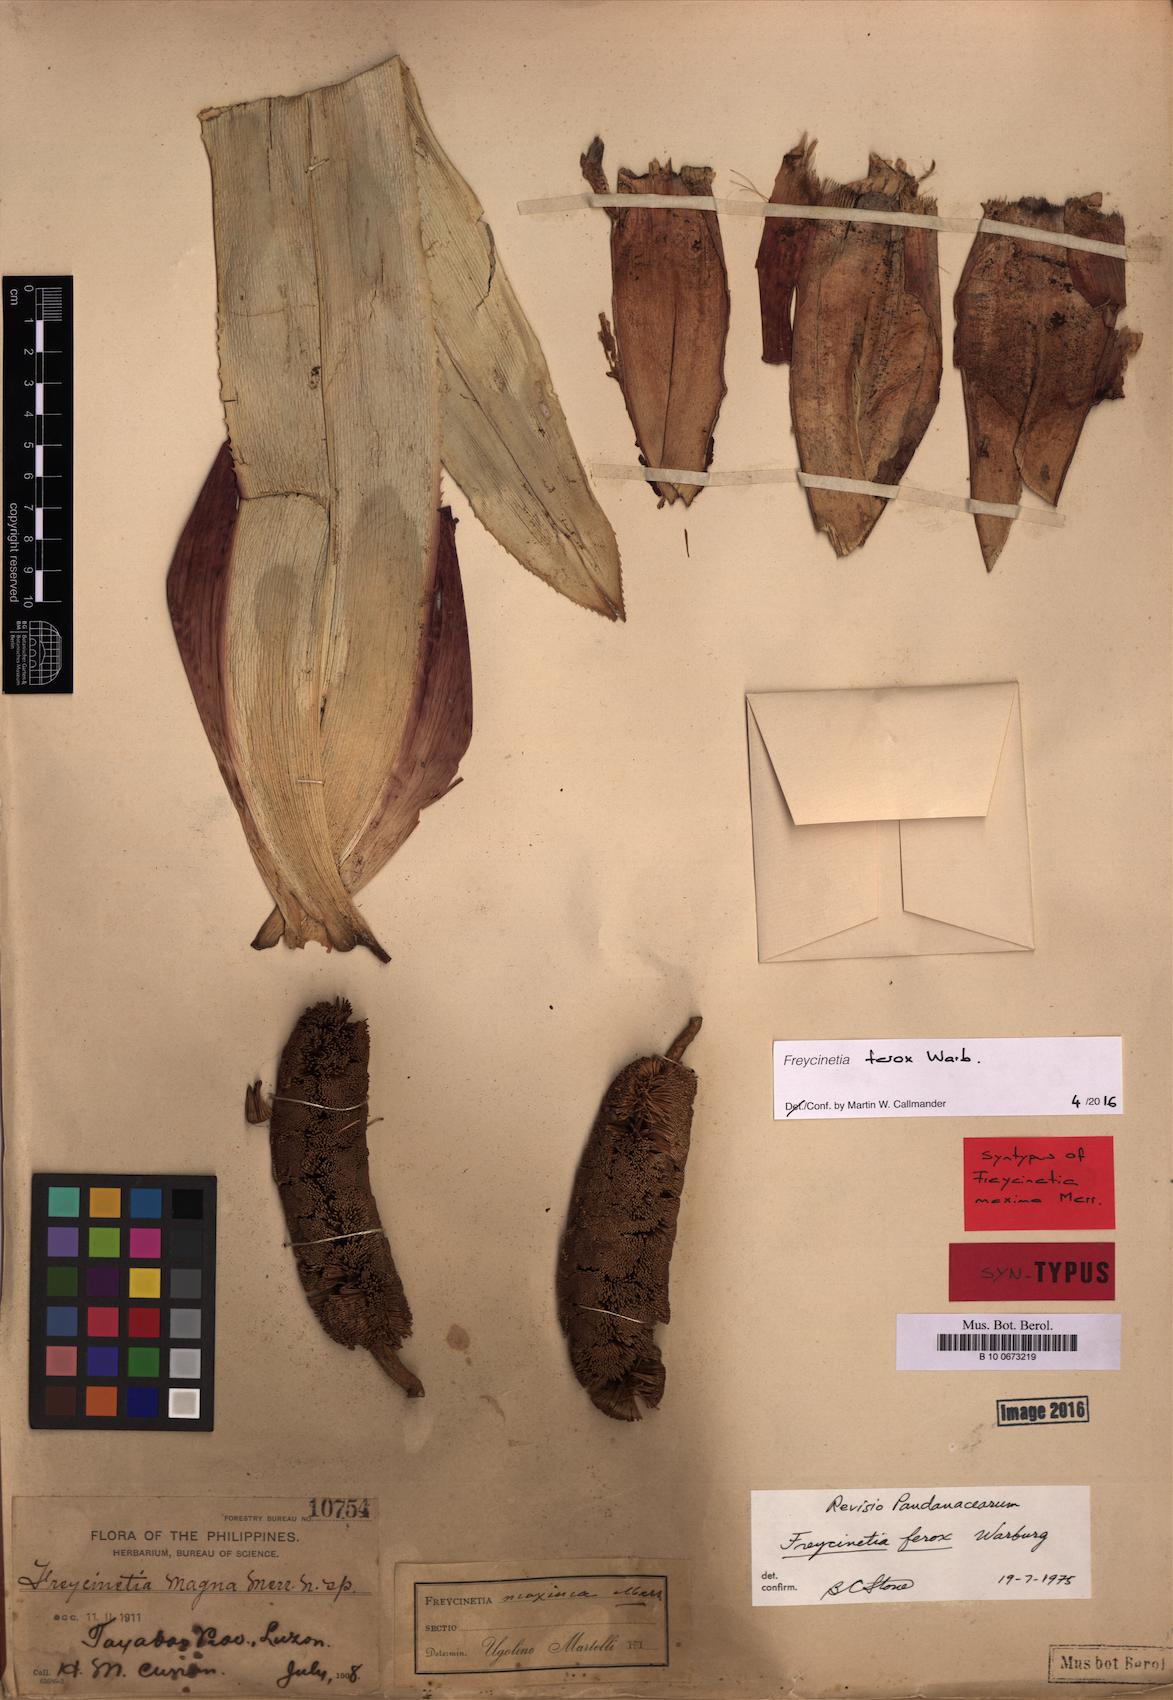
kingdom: Plantae
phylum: Tracheophyta
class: Liliopsida
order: Pandanales
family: Pandanaceae
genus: Freycinetia
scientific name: Freycinetia ferox
